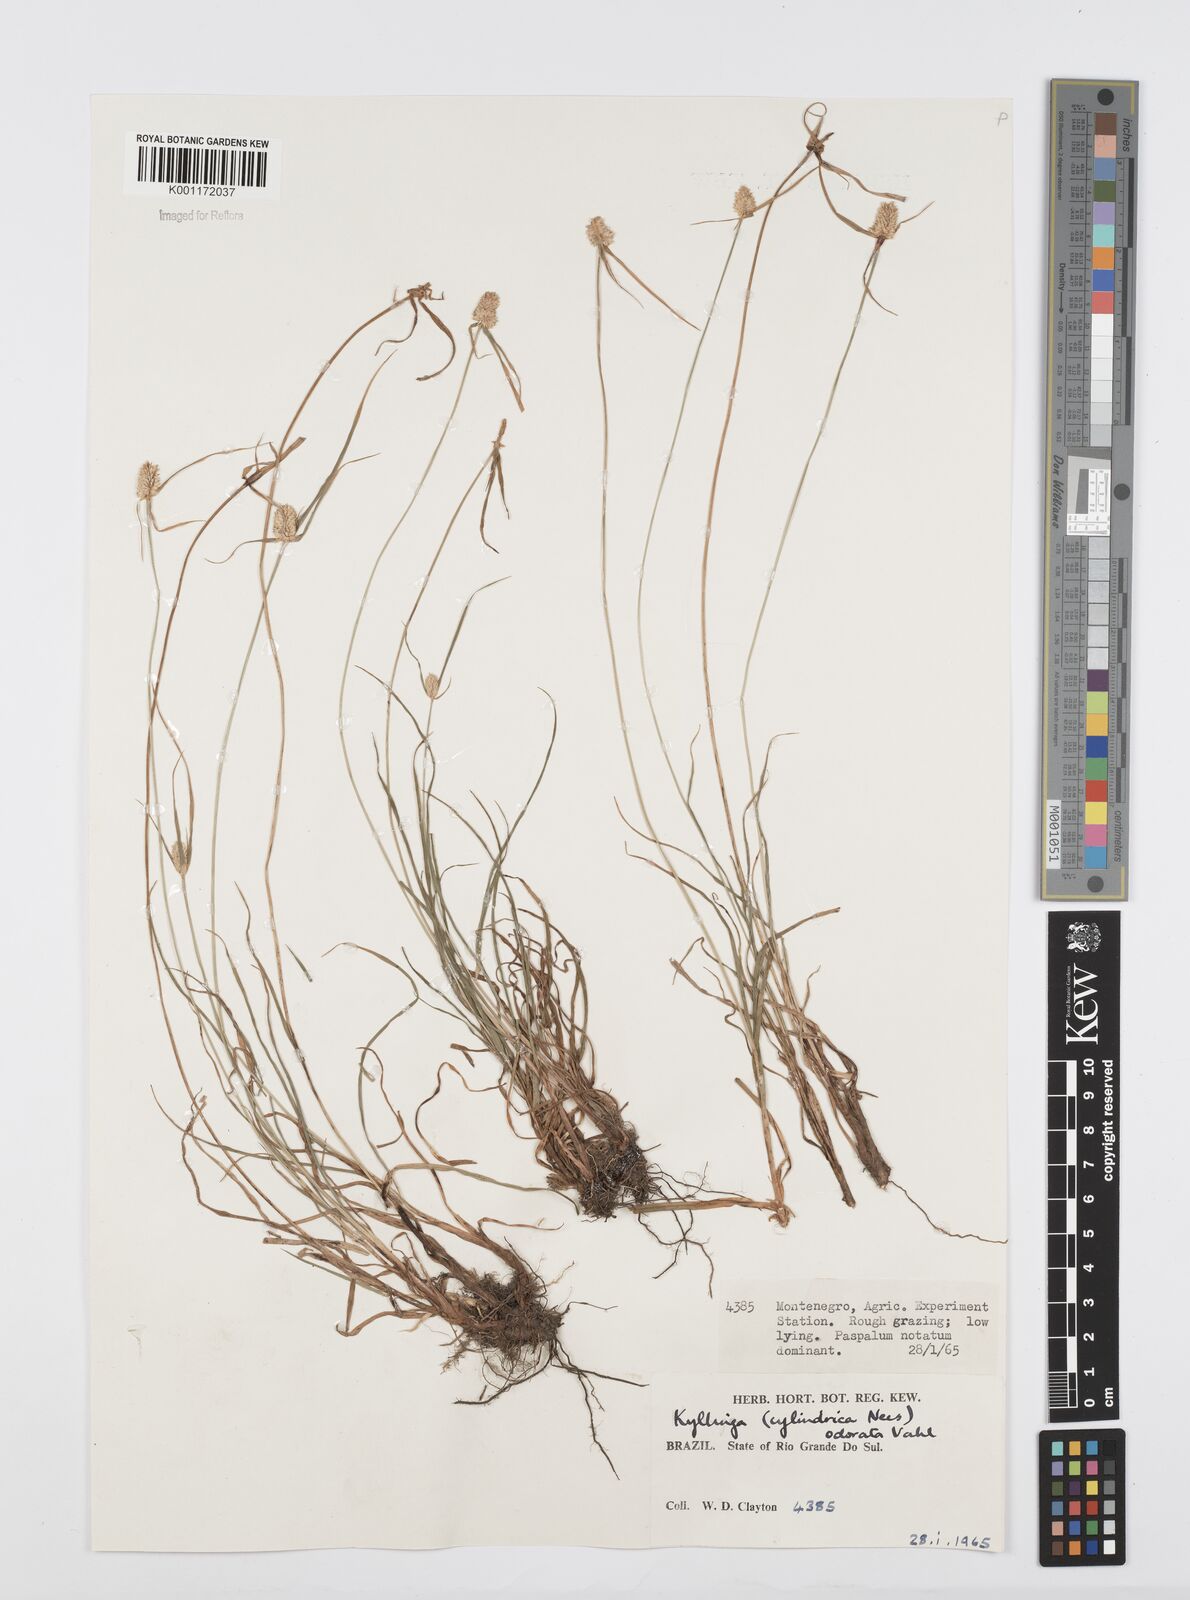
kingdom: Plantae
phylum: Tracheophyta
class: Liliopsida
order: Poales
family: Cyperaceae
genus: Cyperus
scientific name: Cyperus
